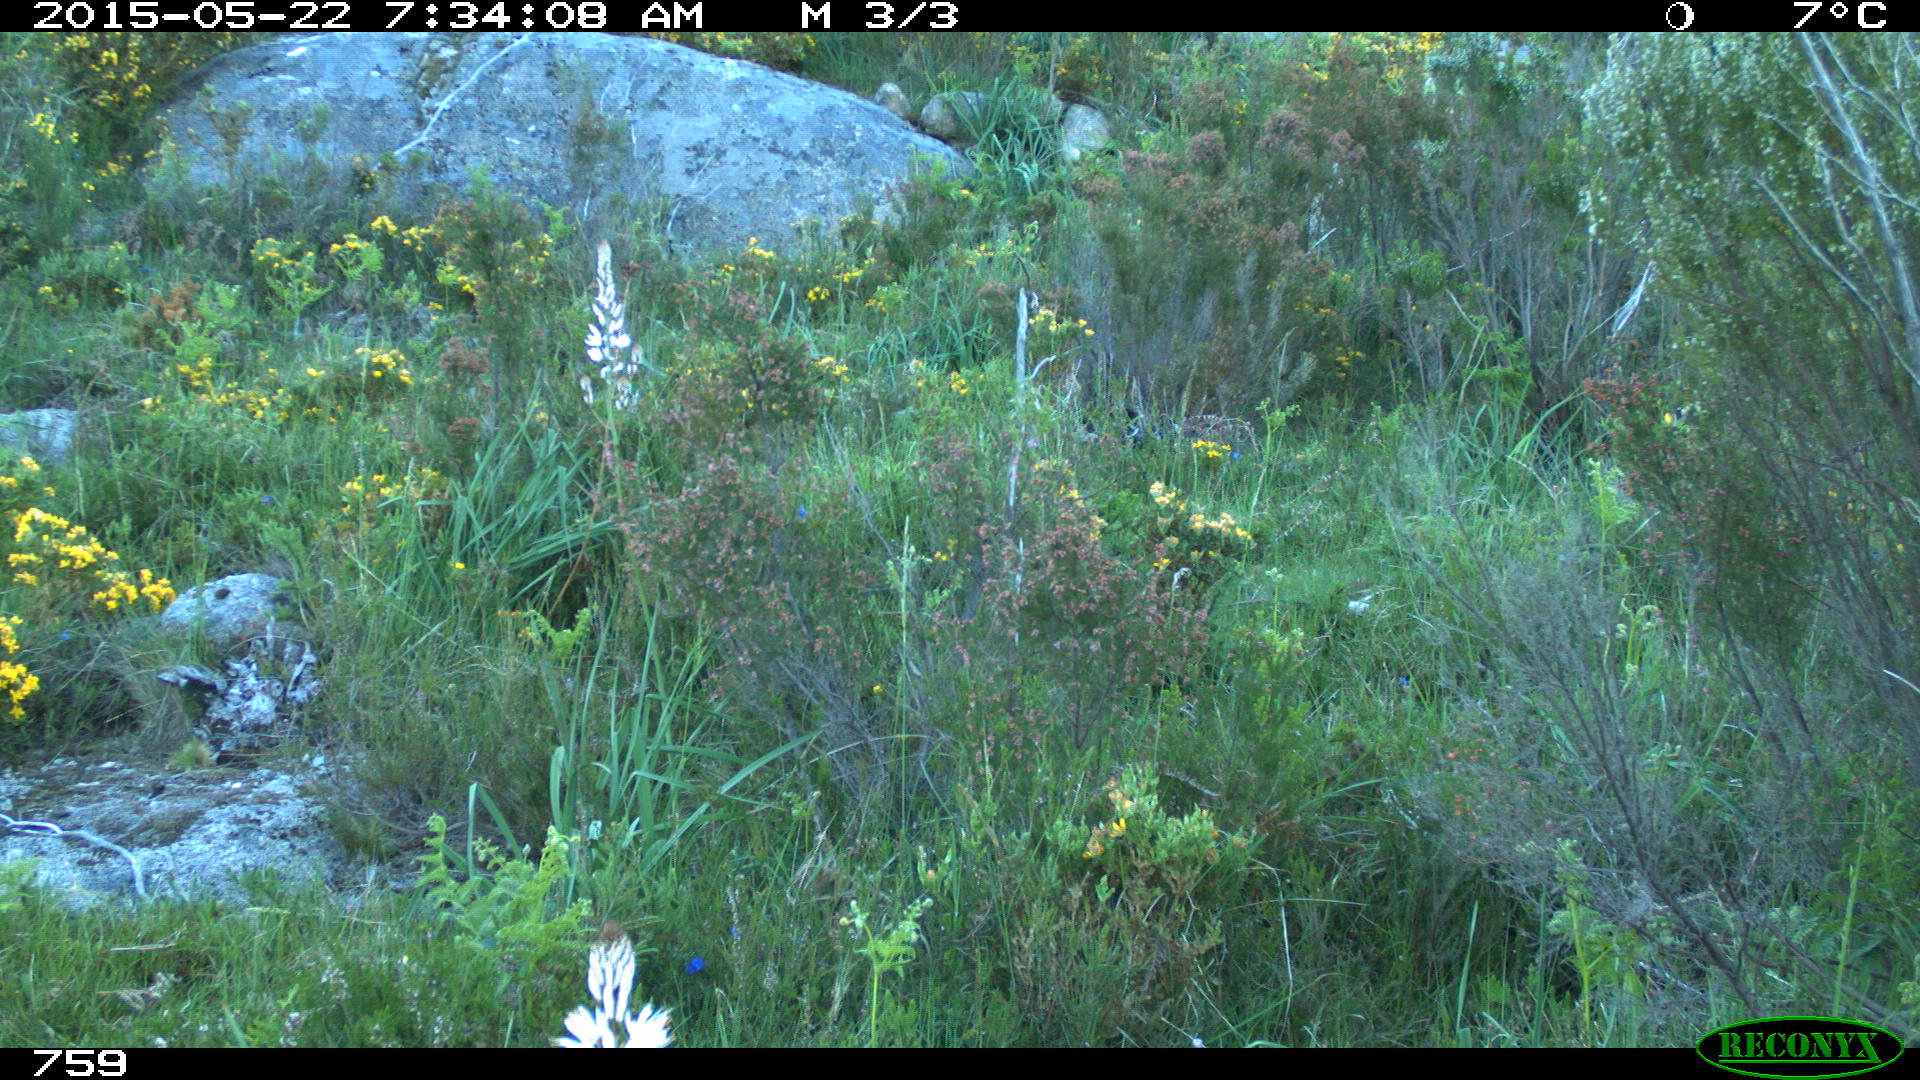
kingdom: Animalia
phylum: Chordata
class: Mammalia
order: Artiodactyla
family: Cervidae
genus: Capreolus
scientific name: Capreolus capreolus
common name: Western roe deer
